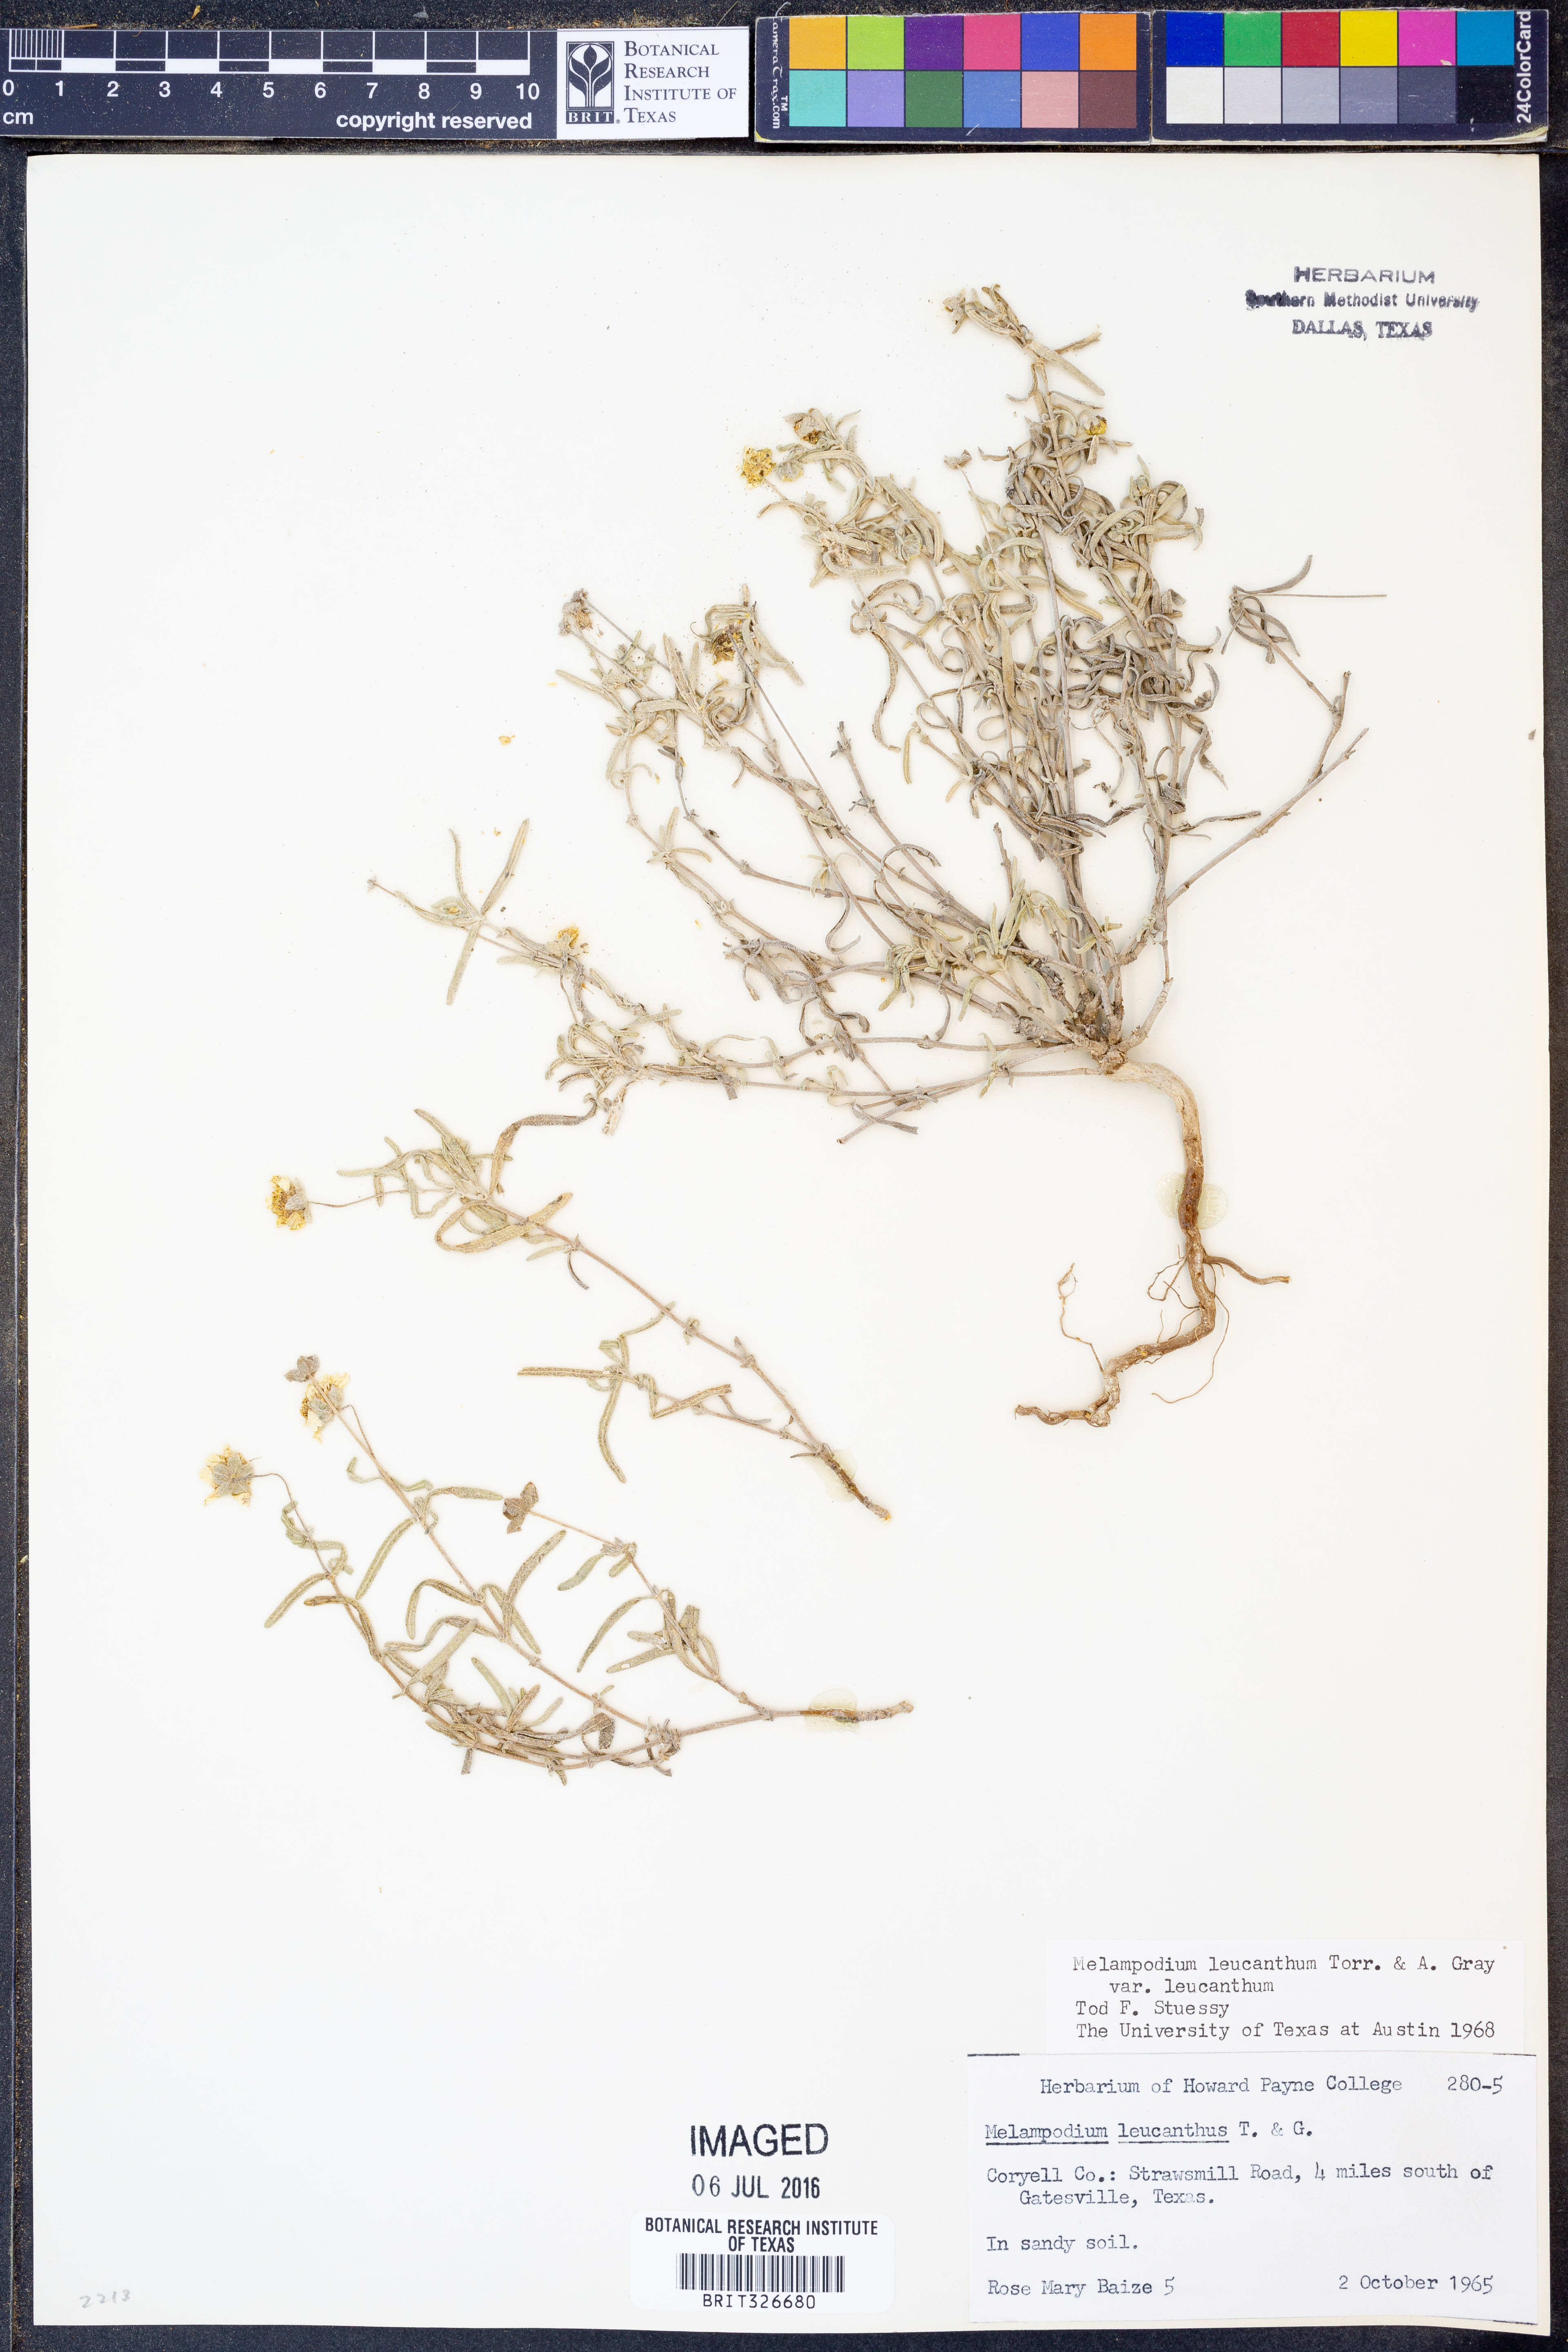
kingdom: Plantae
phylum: Tracheophyta
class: Magnoliopsida
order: Asterales
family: Asteraceae
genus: Melampodium
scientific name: Melampodium leucanthum
